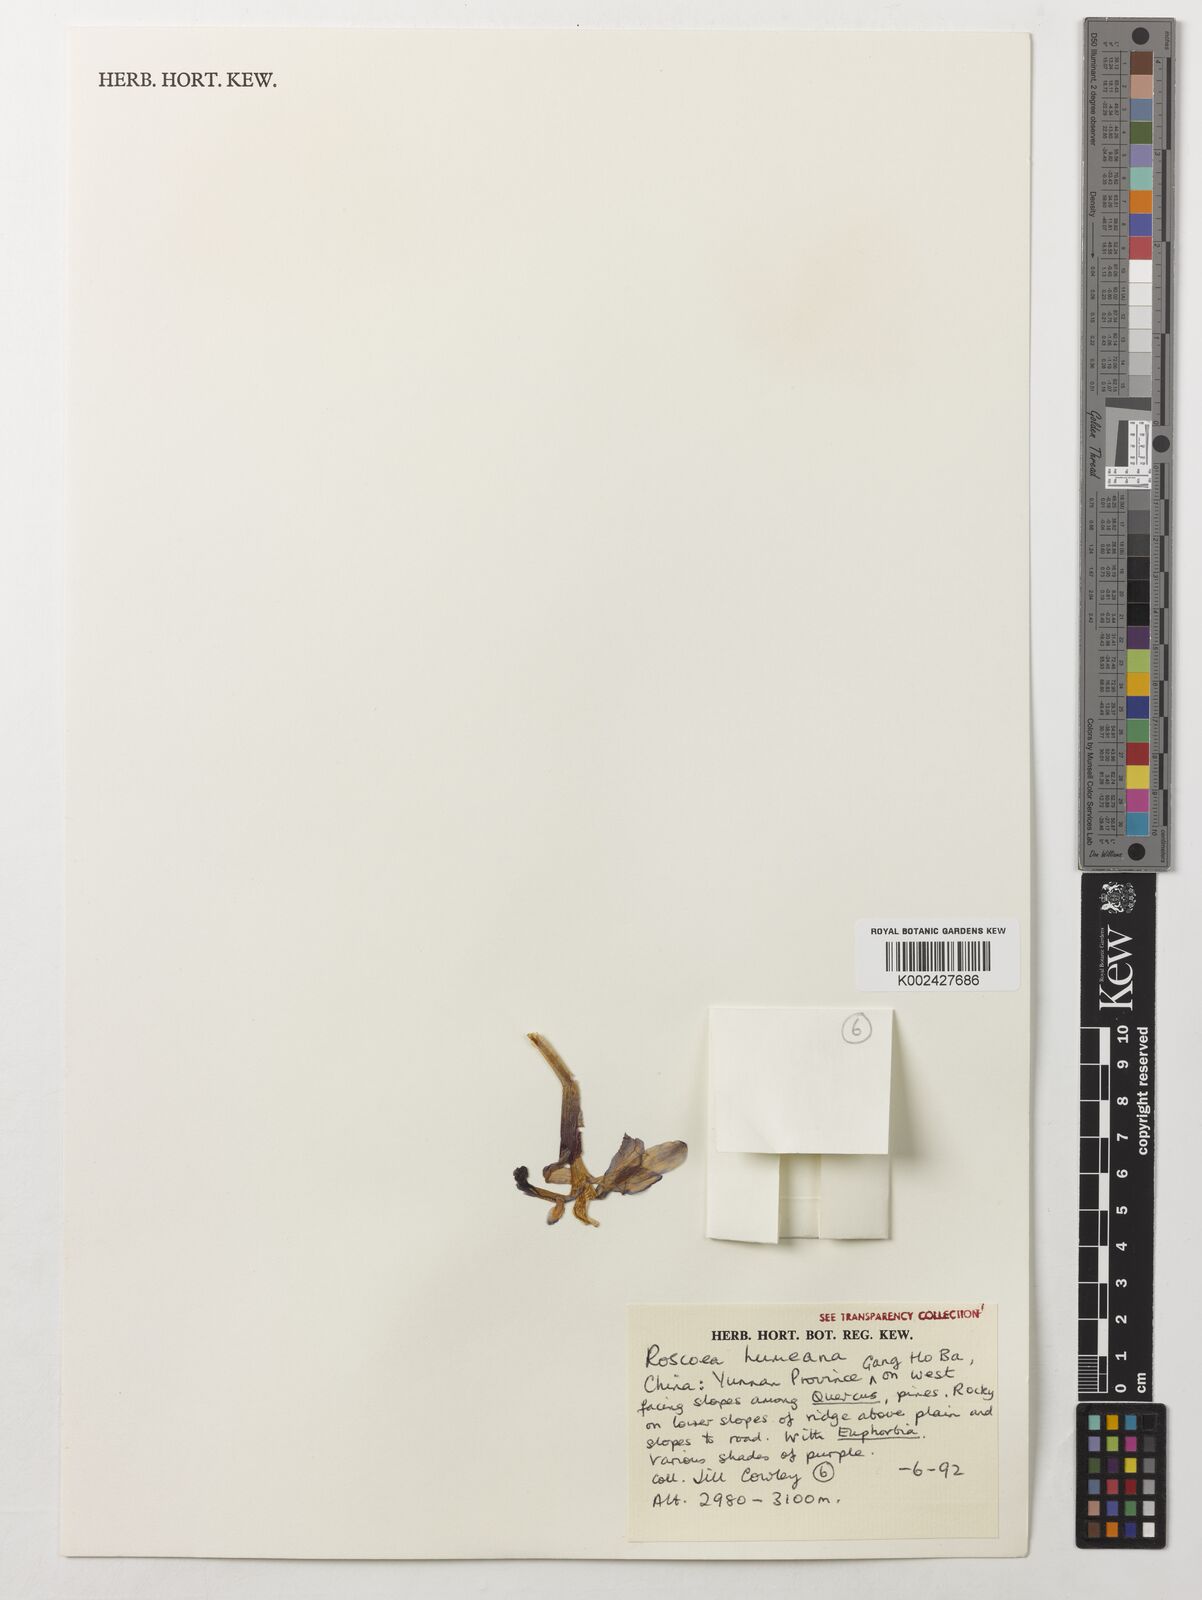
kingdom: Plantae
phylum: Tracheophyta
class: Liliopsida
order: Zingiberales
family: Zingiberaceae
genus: Roscoea
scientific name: Roscoea humeana
